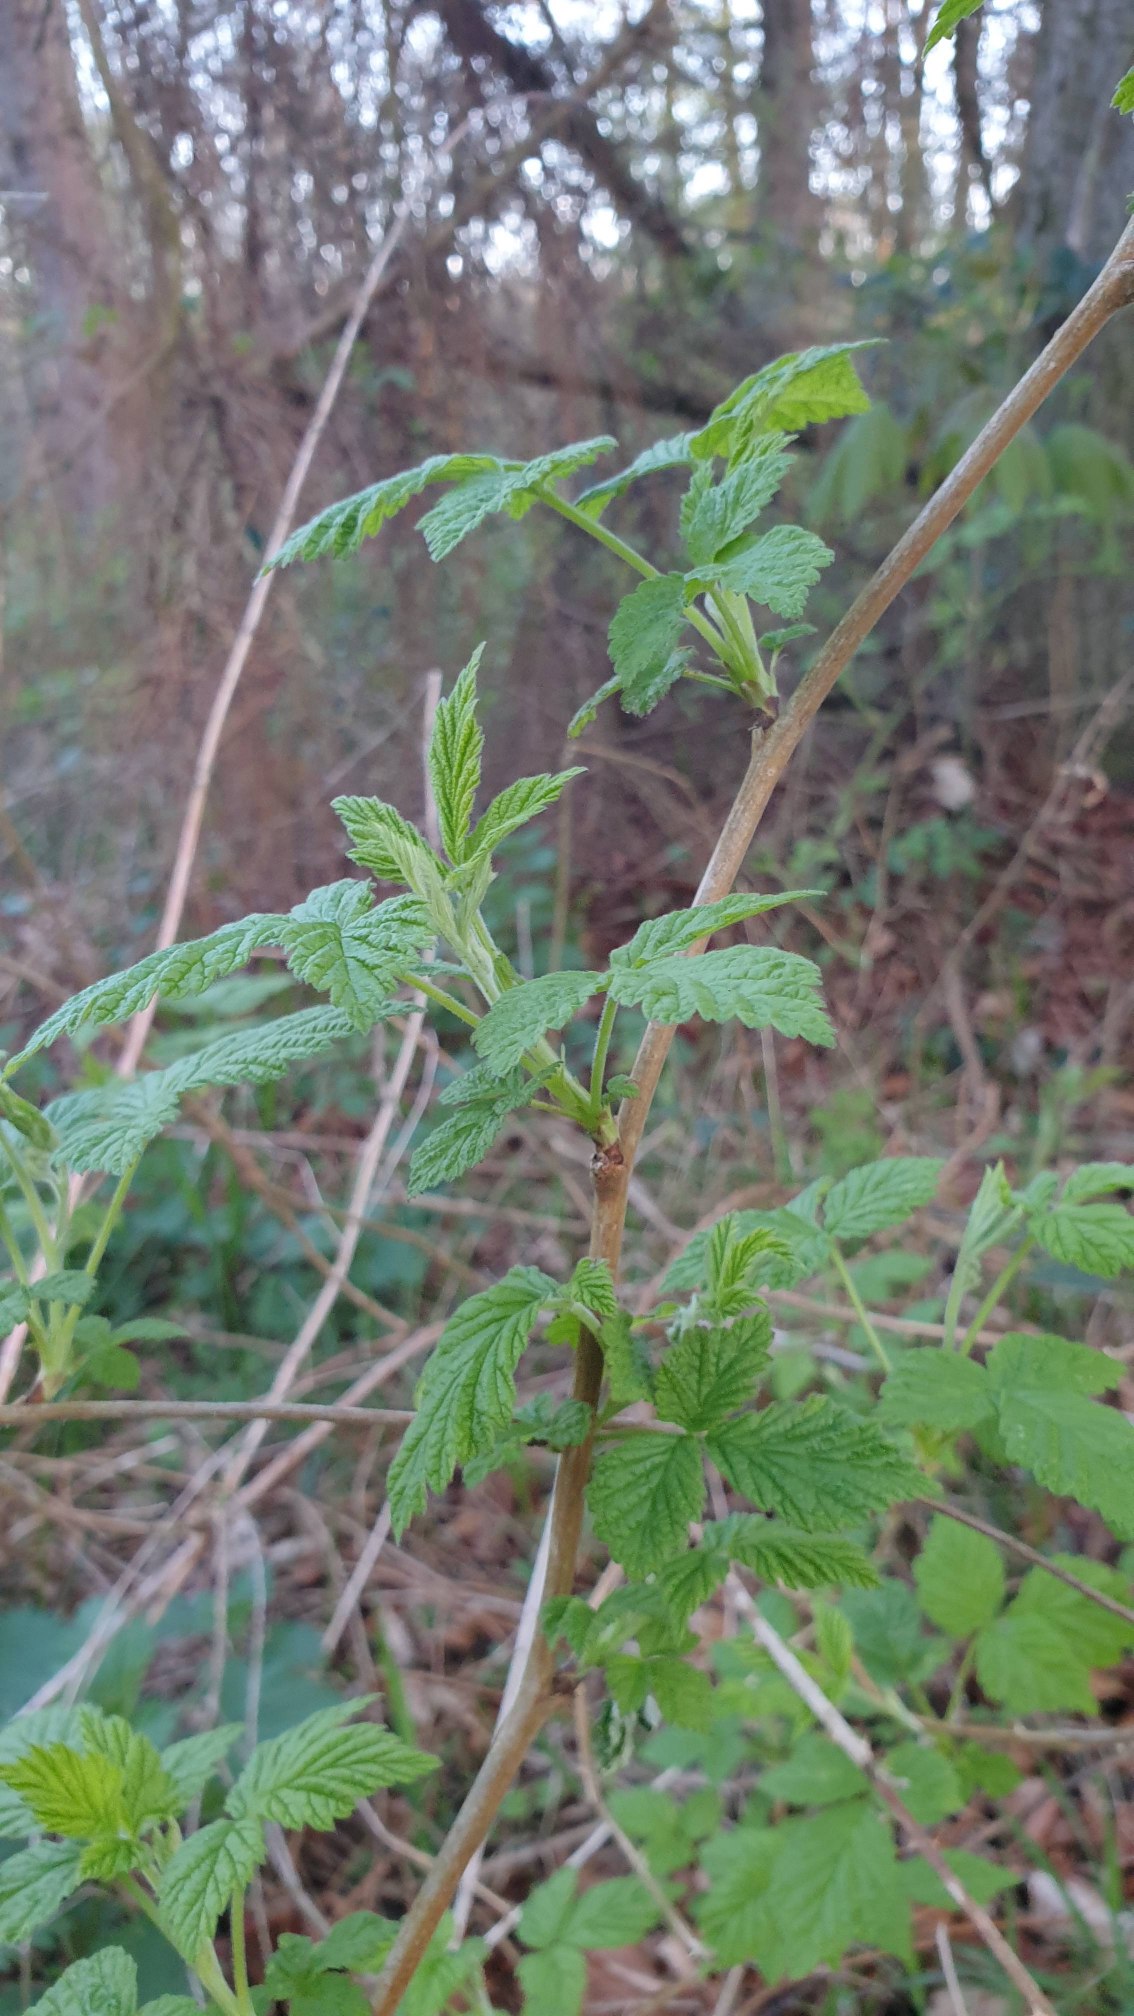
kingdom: Plantae
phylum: Tracheophyta
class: Magnoliopsida
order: Rosales
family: Rosaceae
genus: Rubus
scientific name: Rubus idaeus
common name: Hindbær
